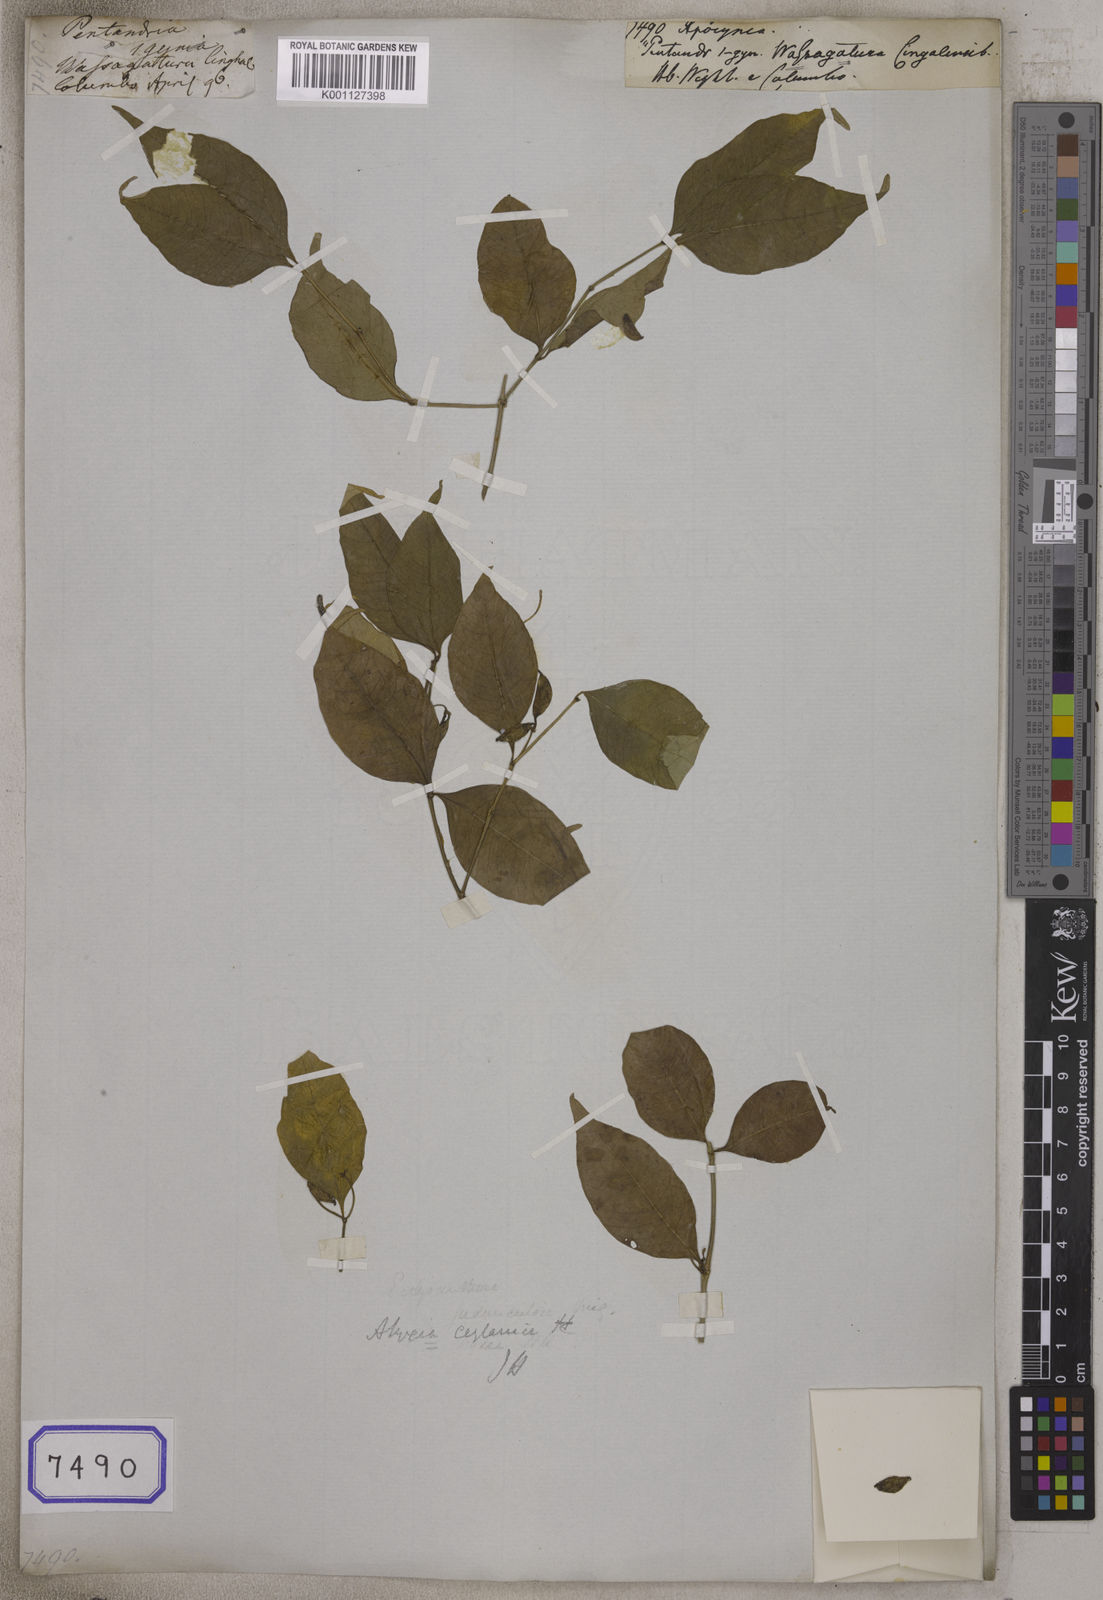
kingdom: Plantae
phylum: Tracheophyta
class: Magnoliopsida
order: Gentianales
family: Apocynaceae
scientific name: Apocynaceae
